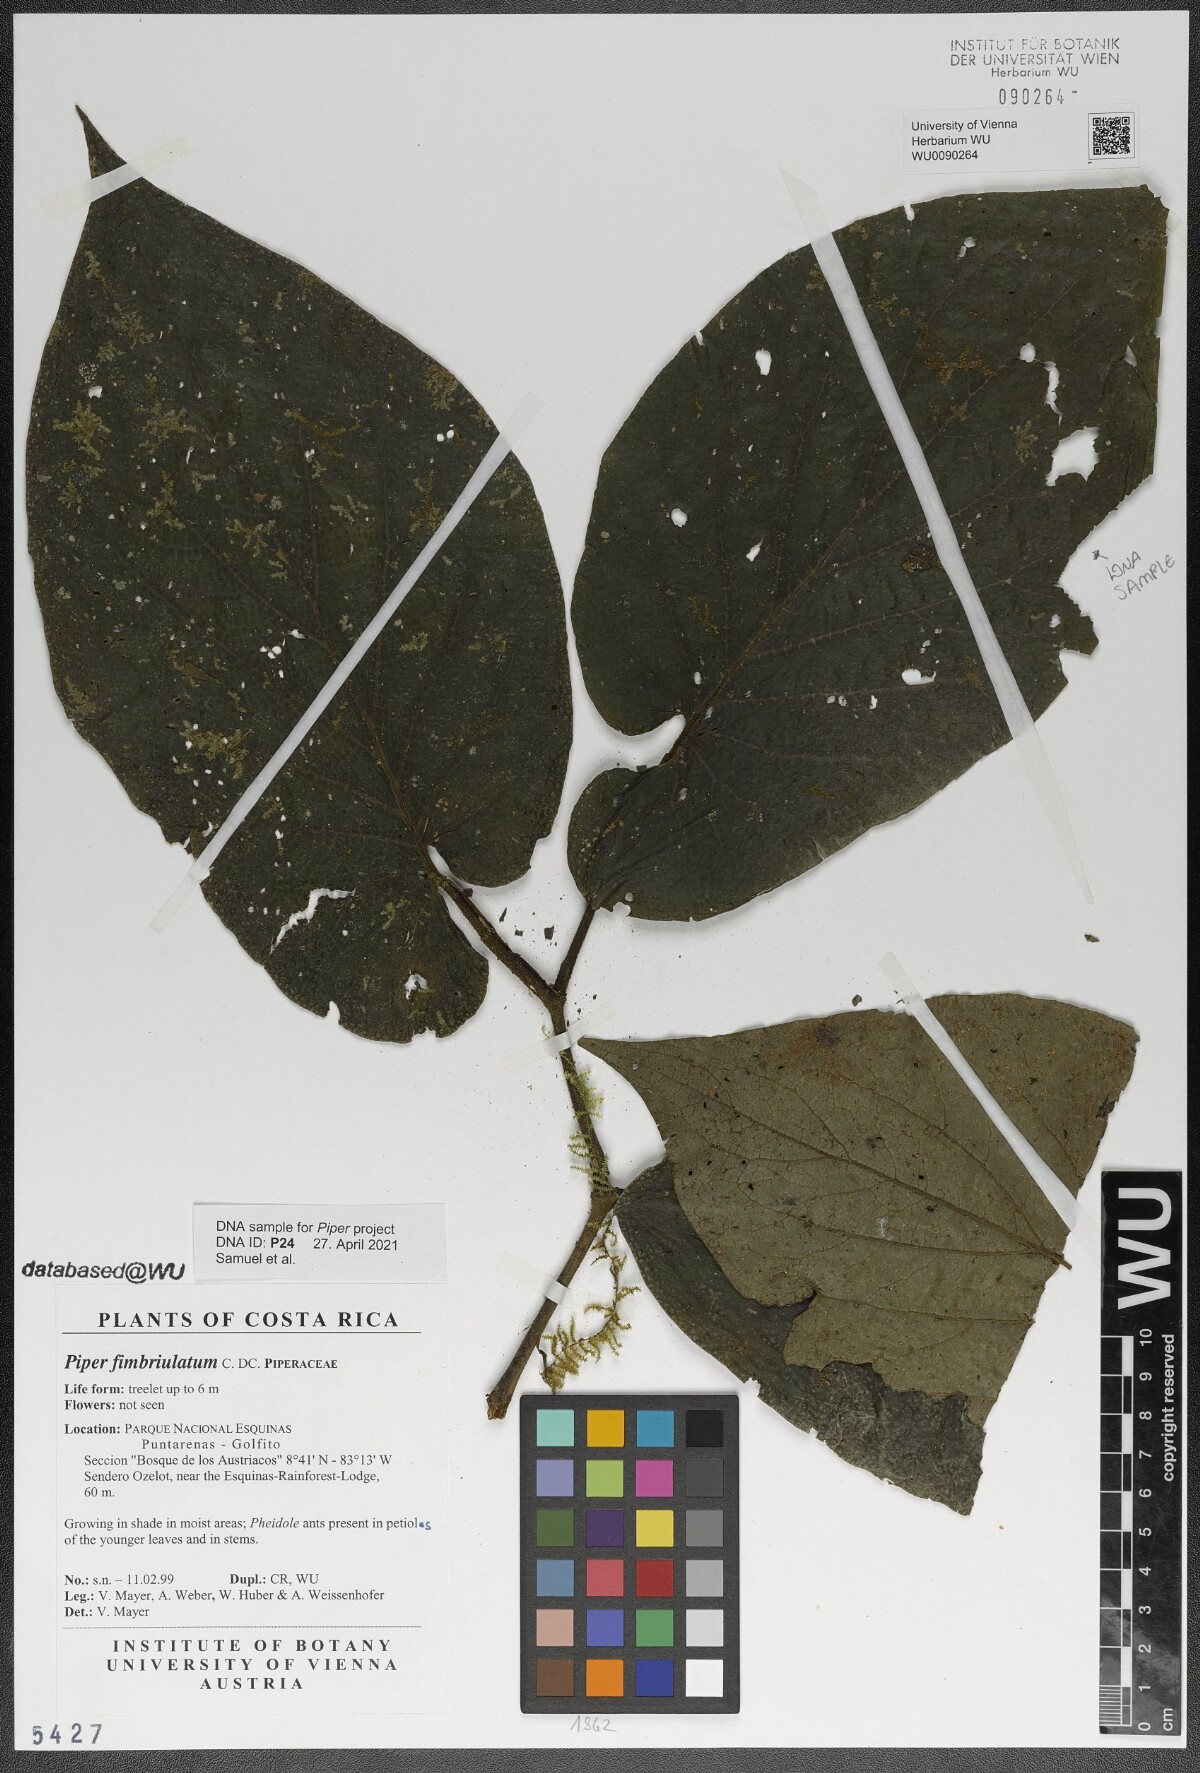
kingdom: Plantae
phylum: Tracheophyta
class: Magnoliopsida
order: Piperales
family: Piperaceae
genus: Piper
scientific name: Piper fimbriulatum
